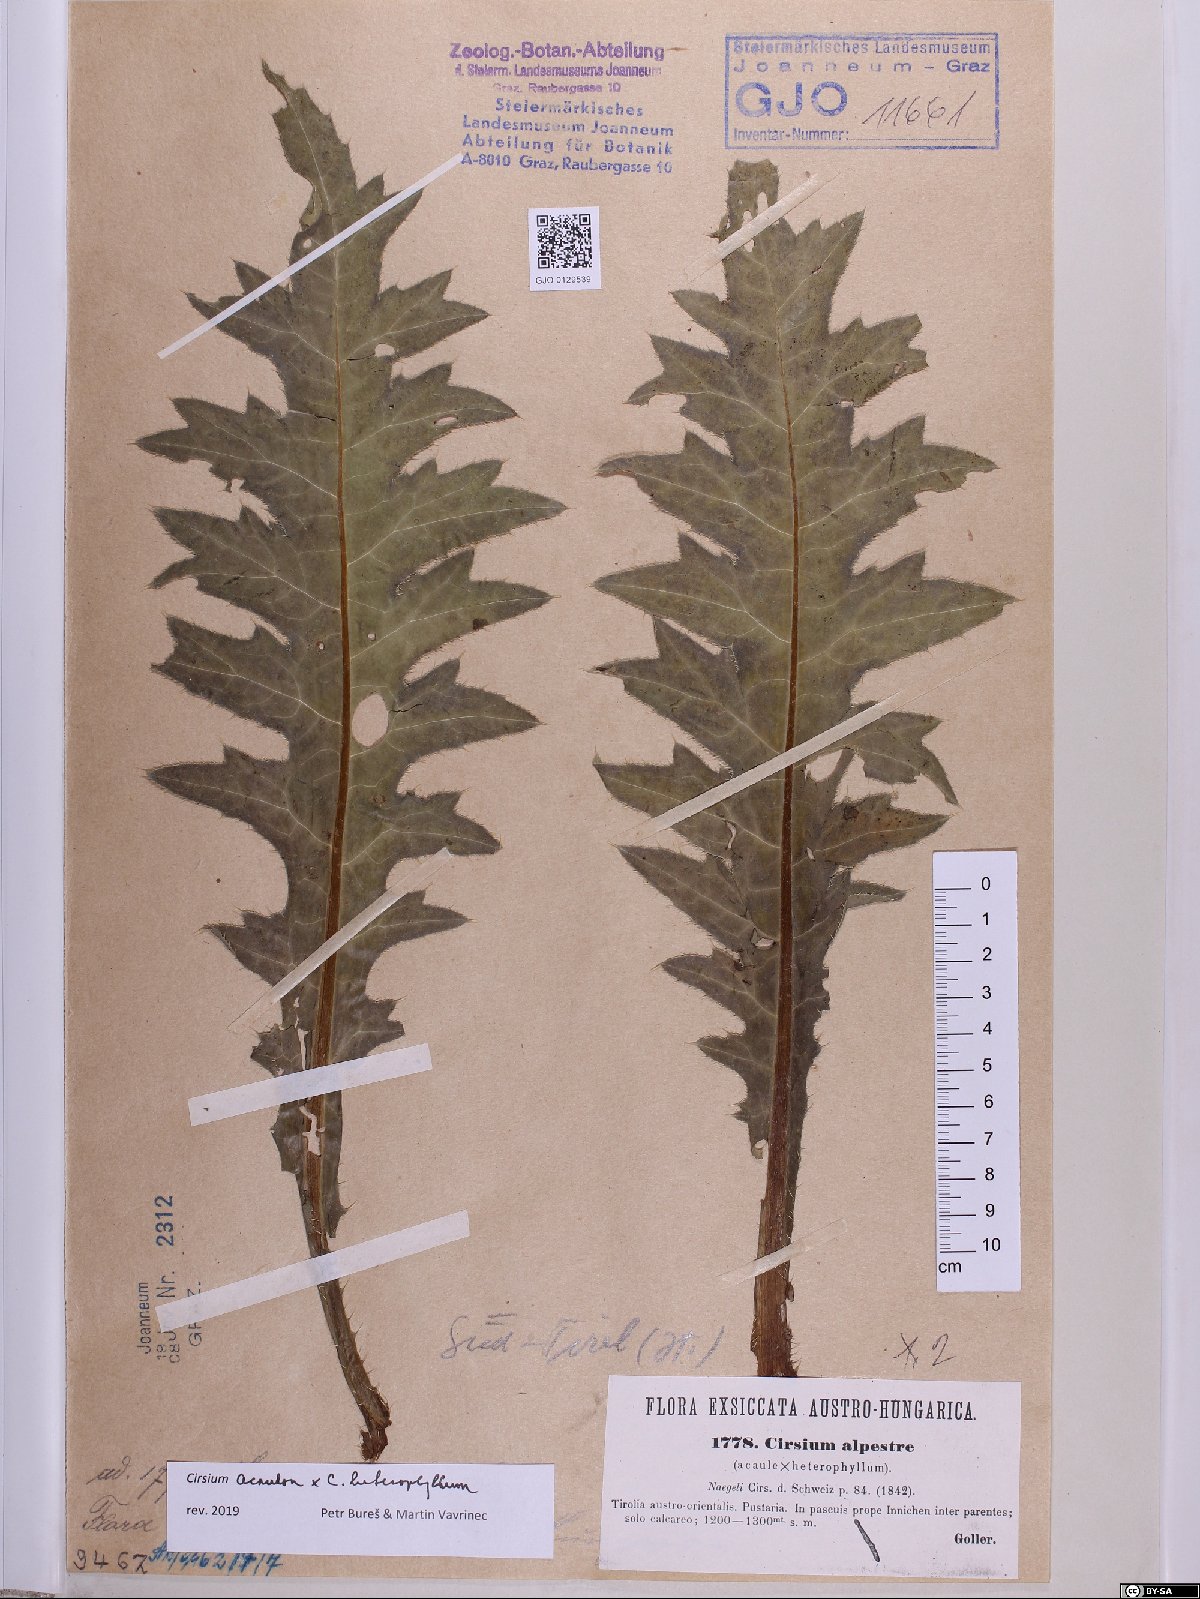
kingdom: Plantae
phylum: Tracheophyta
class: Magnoliopsida
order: Asterales
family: Asteraceae
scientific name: Asteraceae
